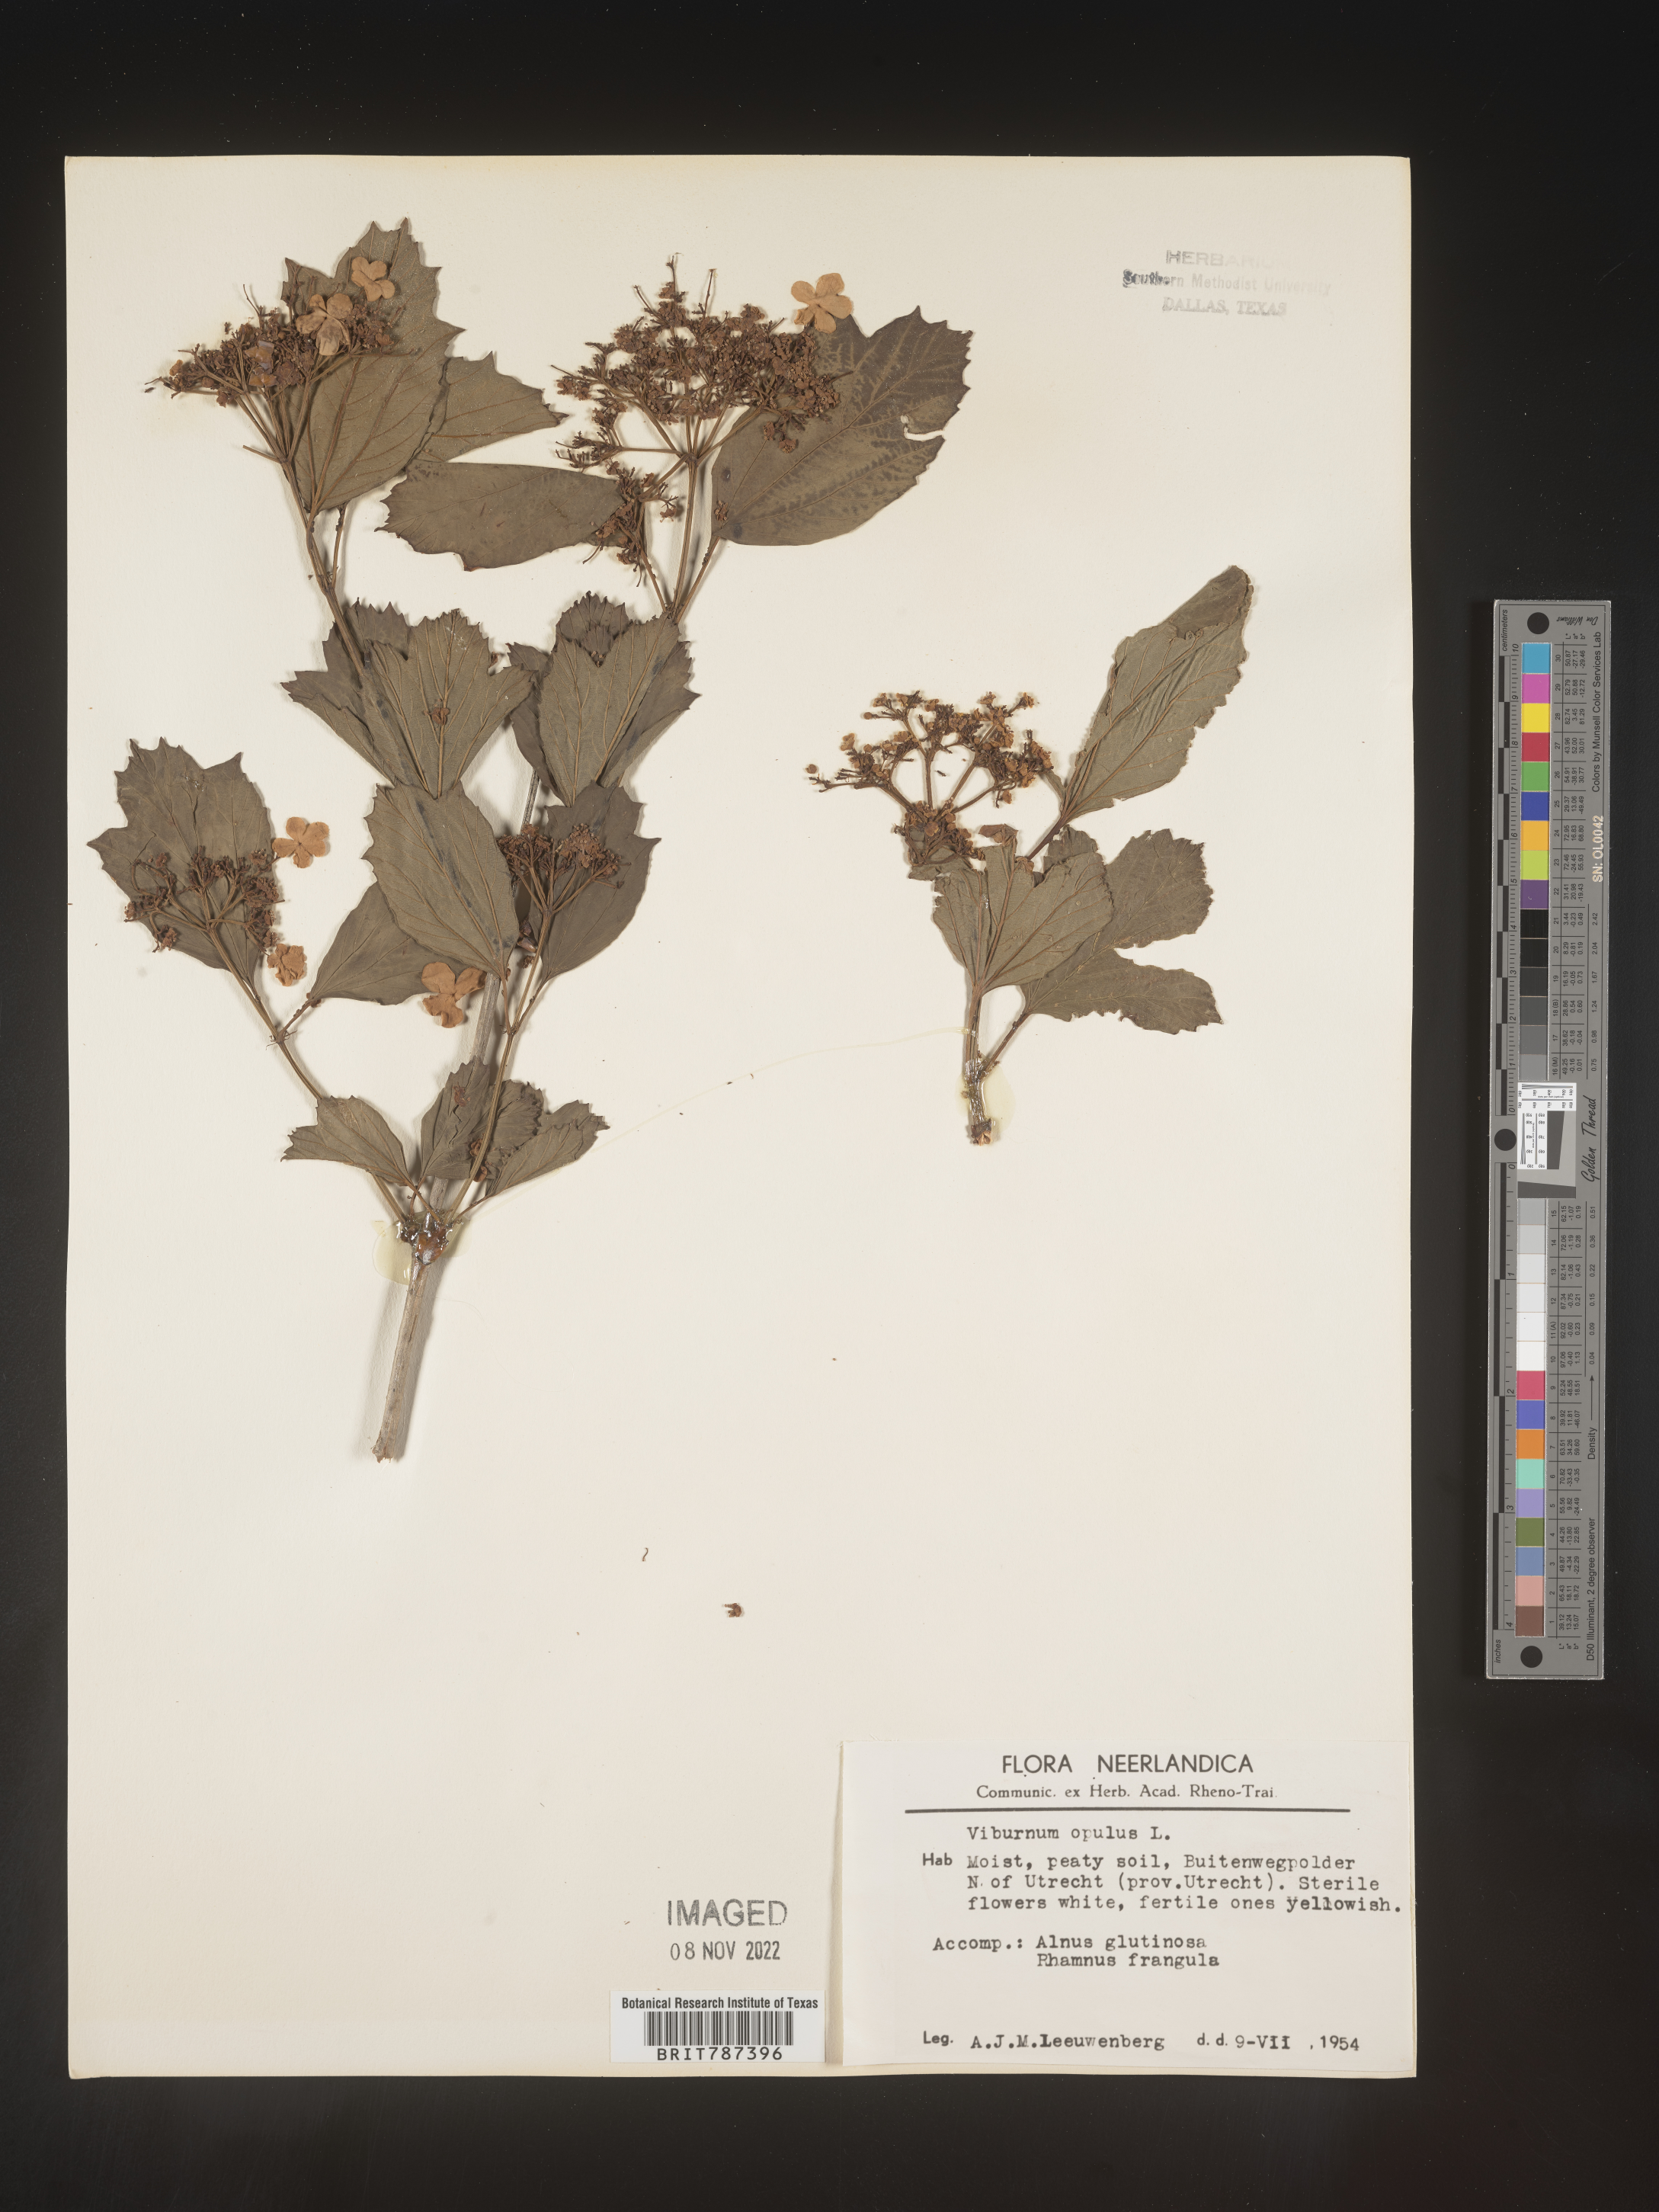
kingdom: Plantae
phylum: Tracheophyta
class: Magnoliopsida
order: Dipsacales
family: Viburnaceae
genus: Viburnum
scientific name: Viburnum opulus
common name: Guelder-rose
